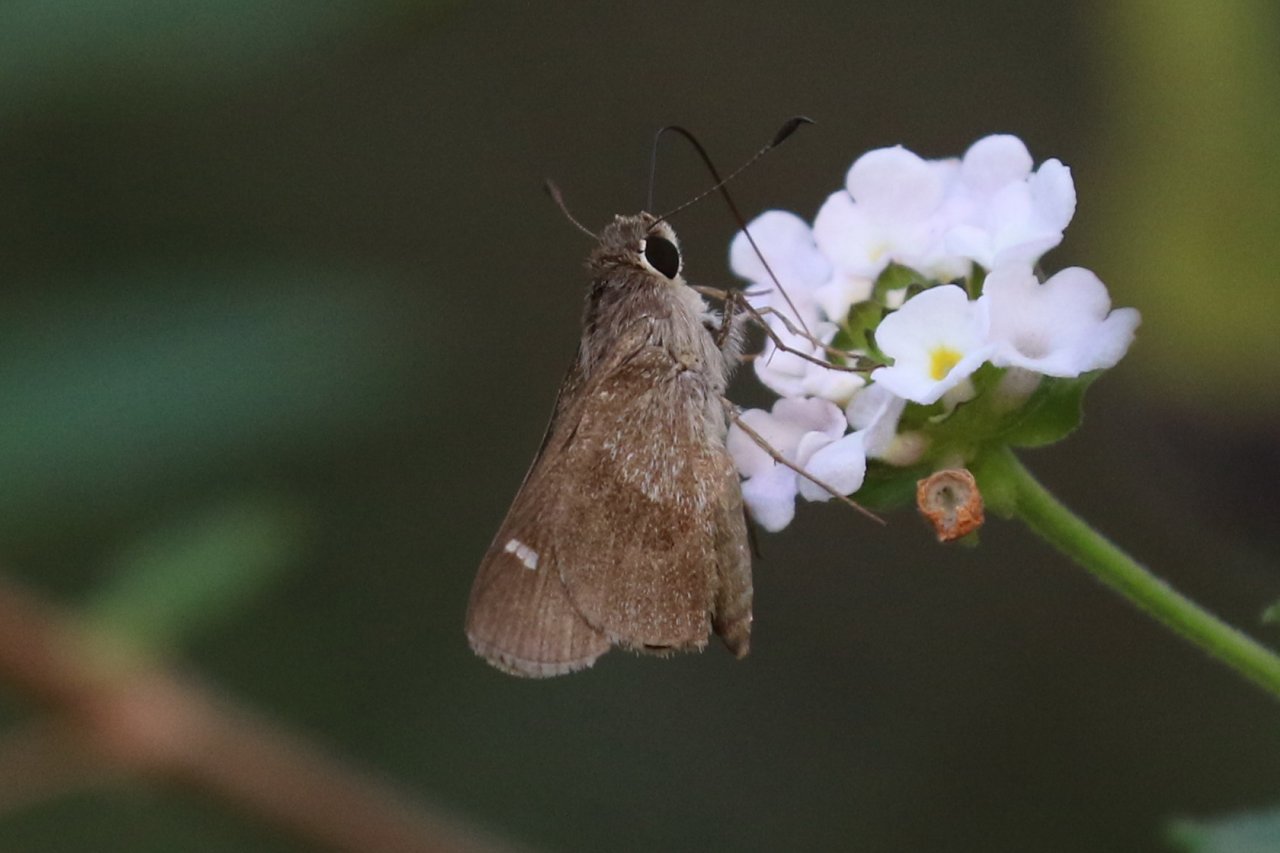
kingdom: Animalia
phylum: Arthropoda
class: Insecta
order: Lepidoptera
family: Hesperiidae
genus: Lerodea
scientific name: Lerodea arabus
